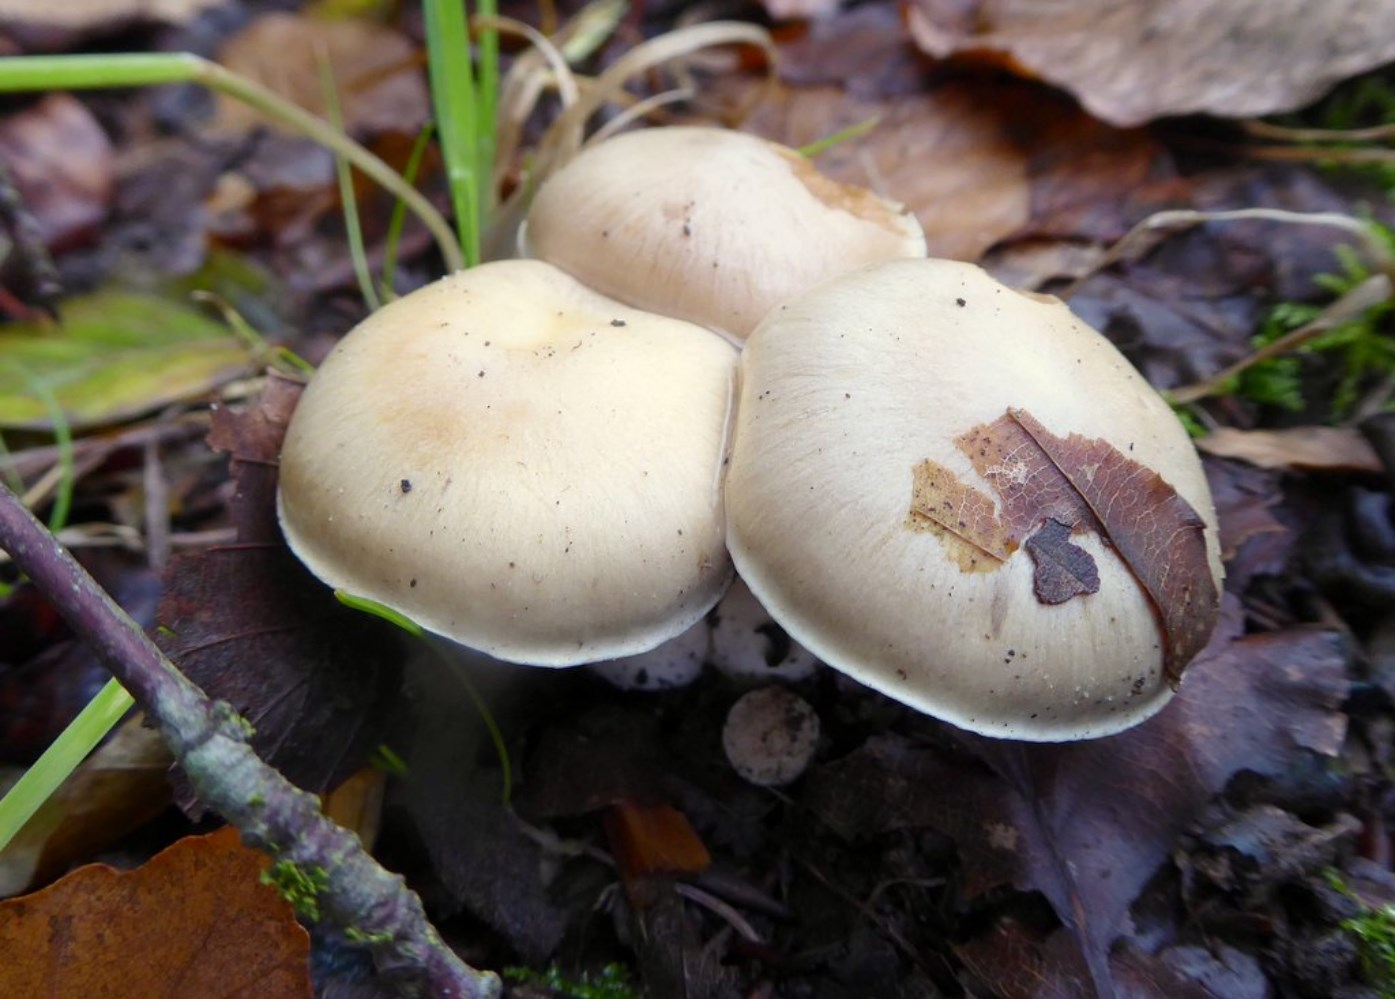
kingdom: Fungi
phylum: Basidiomycota
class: Agaricomycetes
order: Agaricales
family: Cortinariaceae
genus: Thaxterogaster
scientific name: Thaxterogaster barbatus
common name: elfenbens-slørhat
